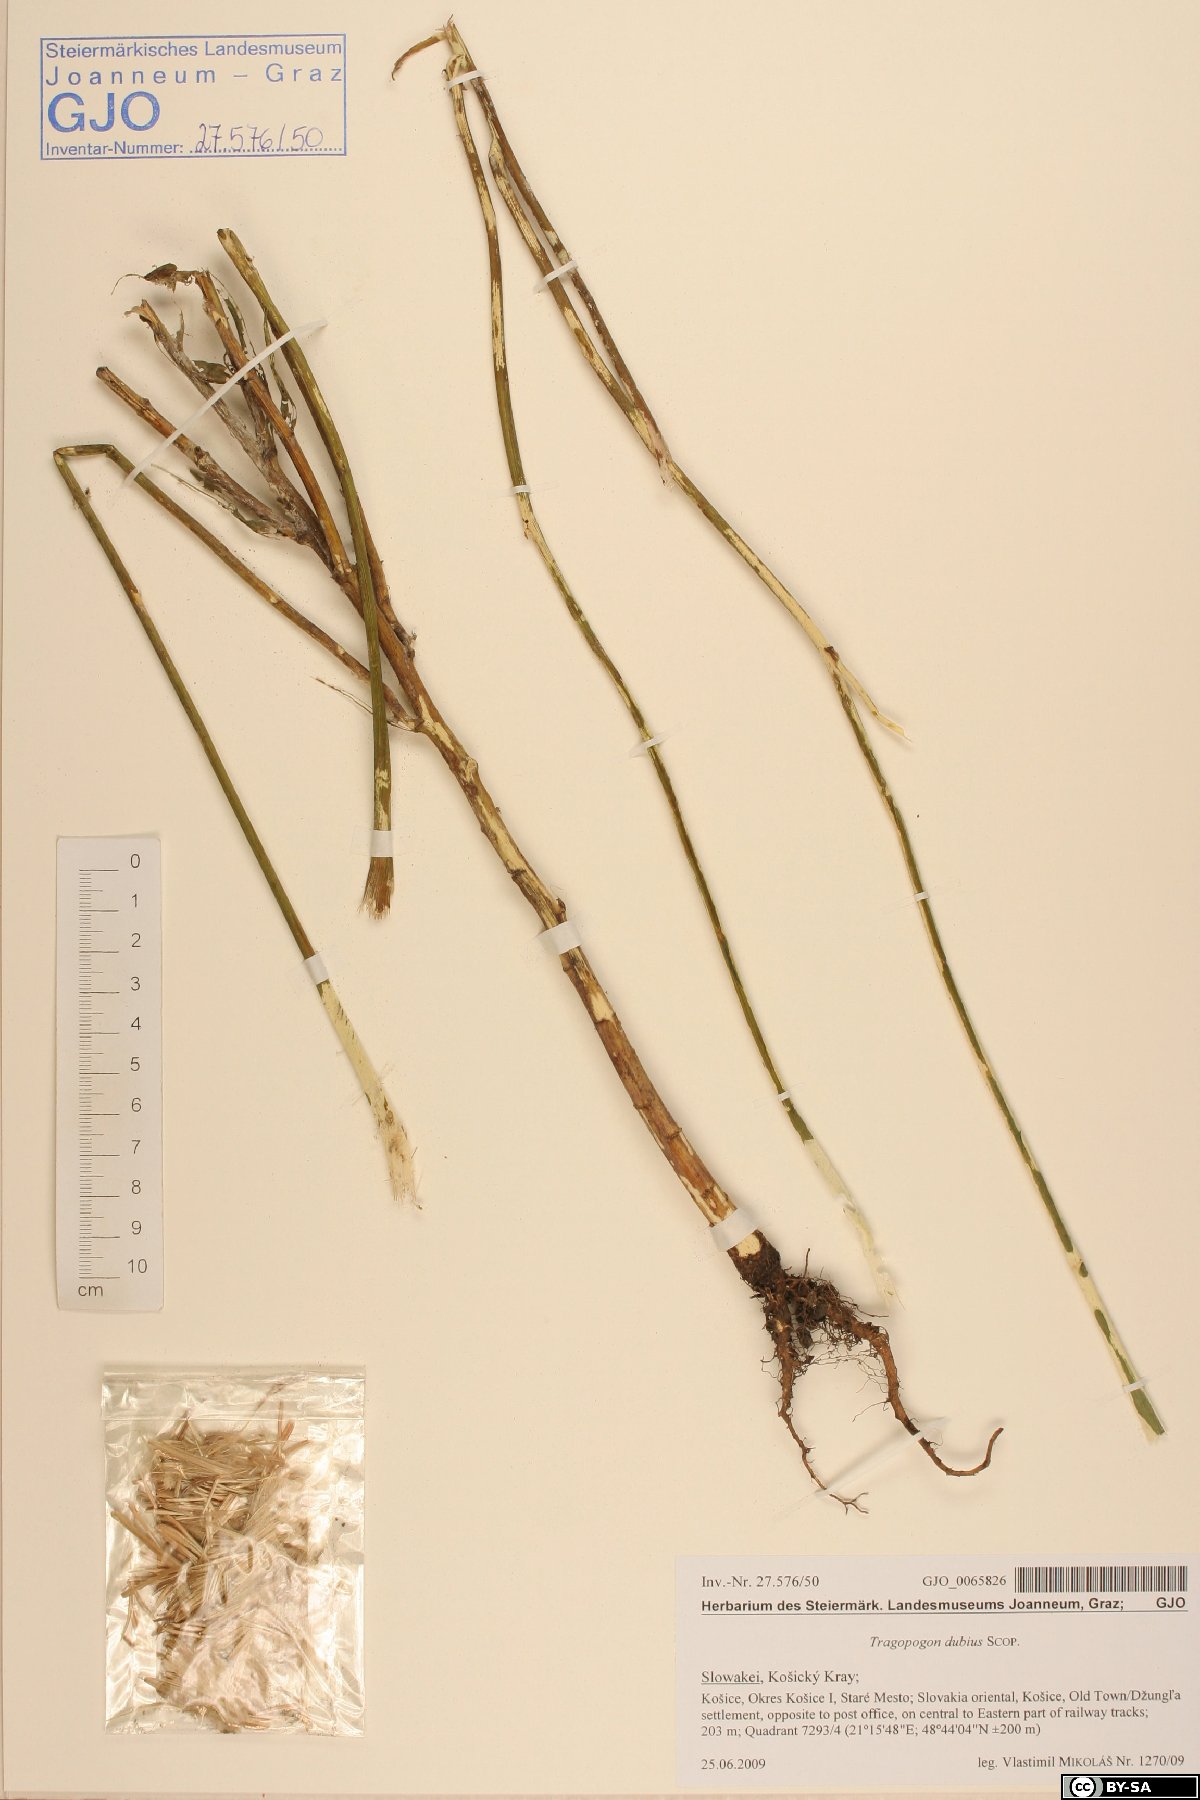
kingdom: Plantae
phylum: Tracheophyta
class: Magnoliopsida
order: Asterales
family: Asteraceae
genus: Tragopogon
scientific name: Tragopogon dubius
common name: Yellow salsify
